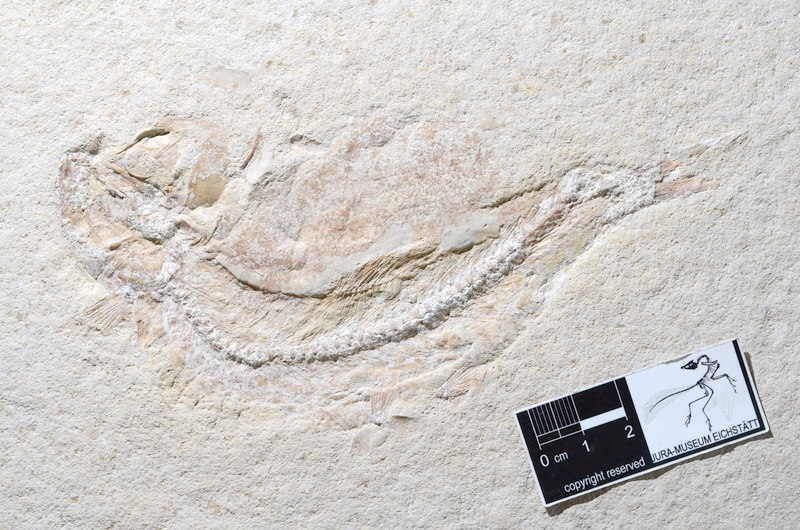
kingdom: Animalia
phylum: Chordata
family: Ascalaboidae
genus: Tharsis
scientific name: Tharsis dubius
